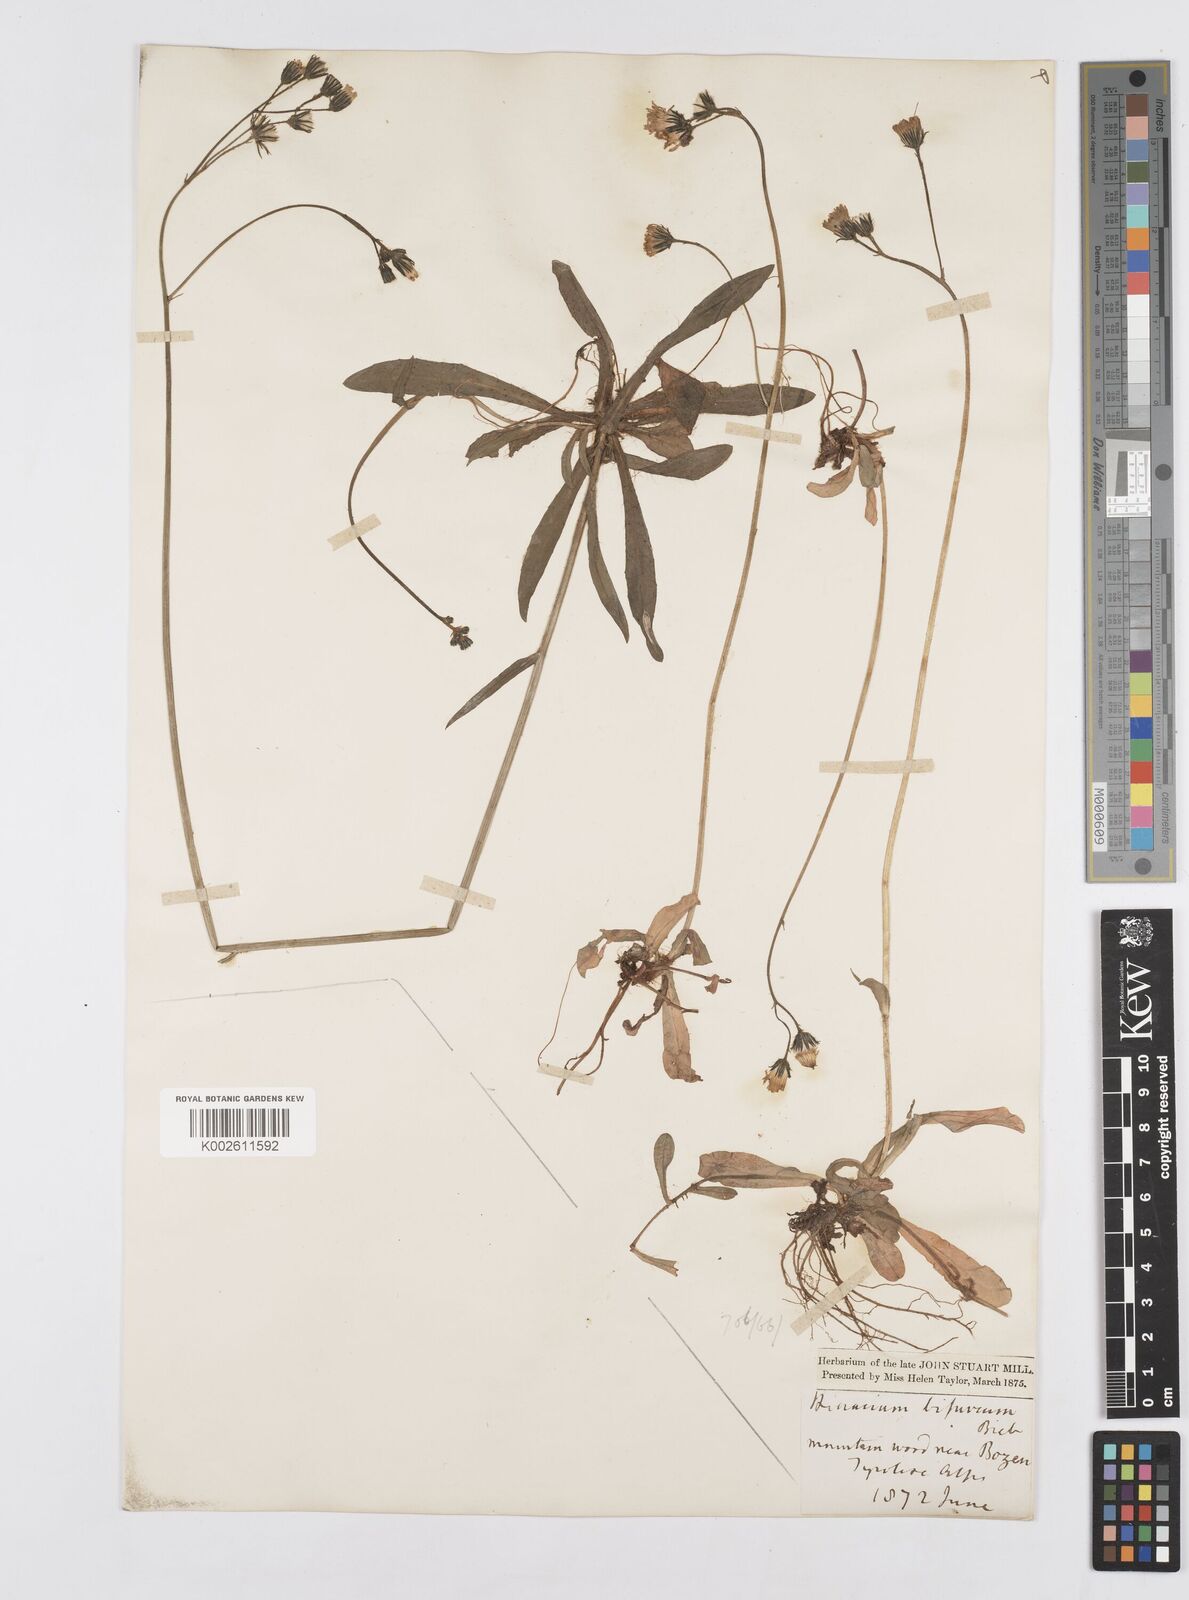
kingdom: Plantae
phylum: Tracheophyta
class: Magnoliopsida
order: Asterales
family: Asteraceae
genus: Pilosella
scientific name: Pilosella acutifolia
